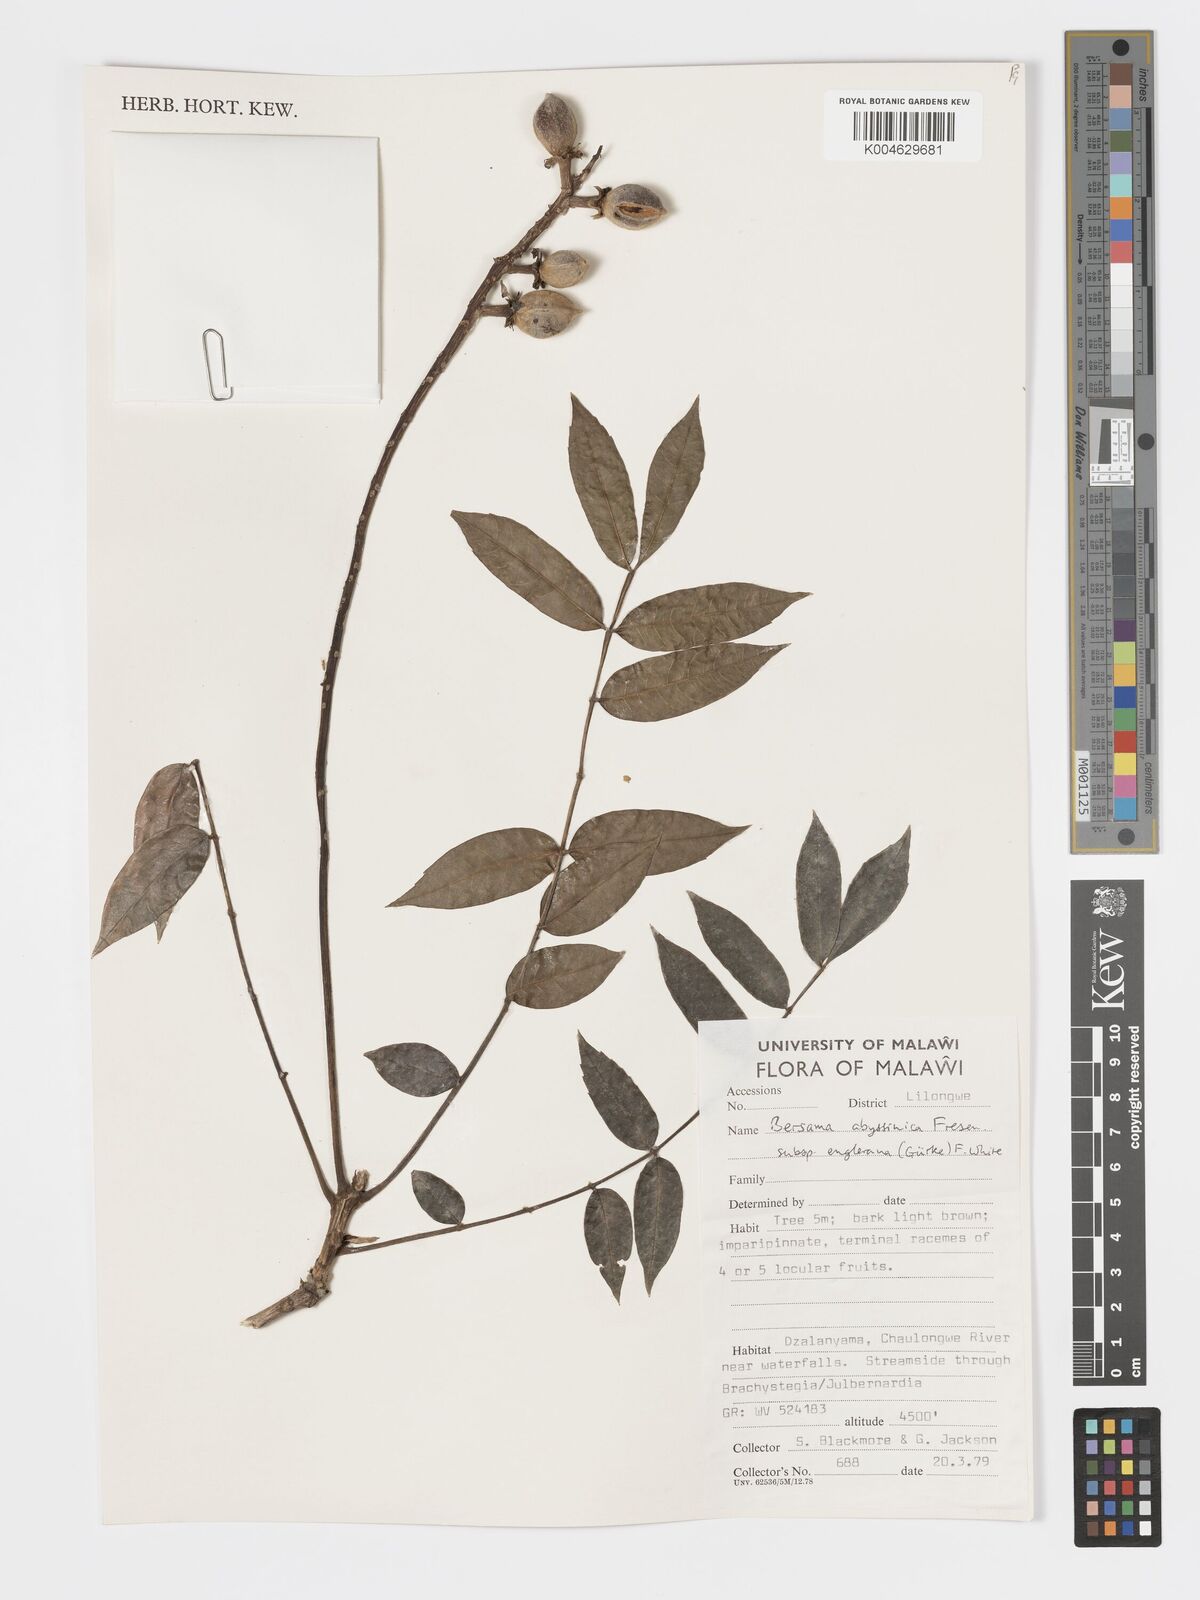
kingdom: Plantae
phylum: Tracheophyta
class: Magnoliopsida
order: Geraniales
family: Melianthaceae
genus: Bersama
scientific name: Bersama abyssinica
